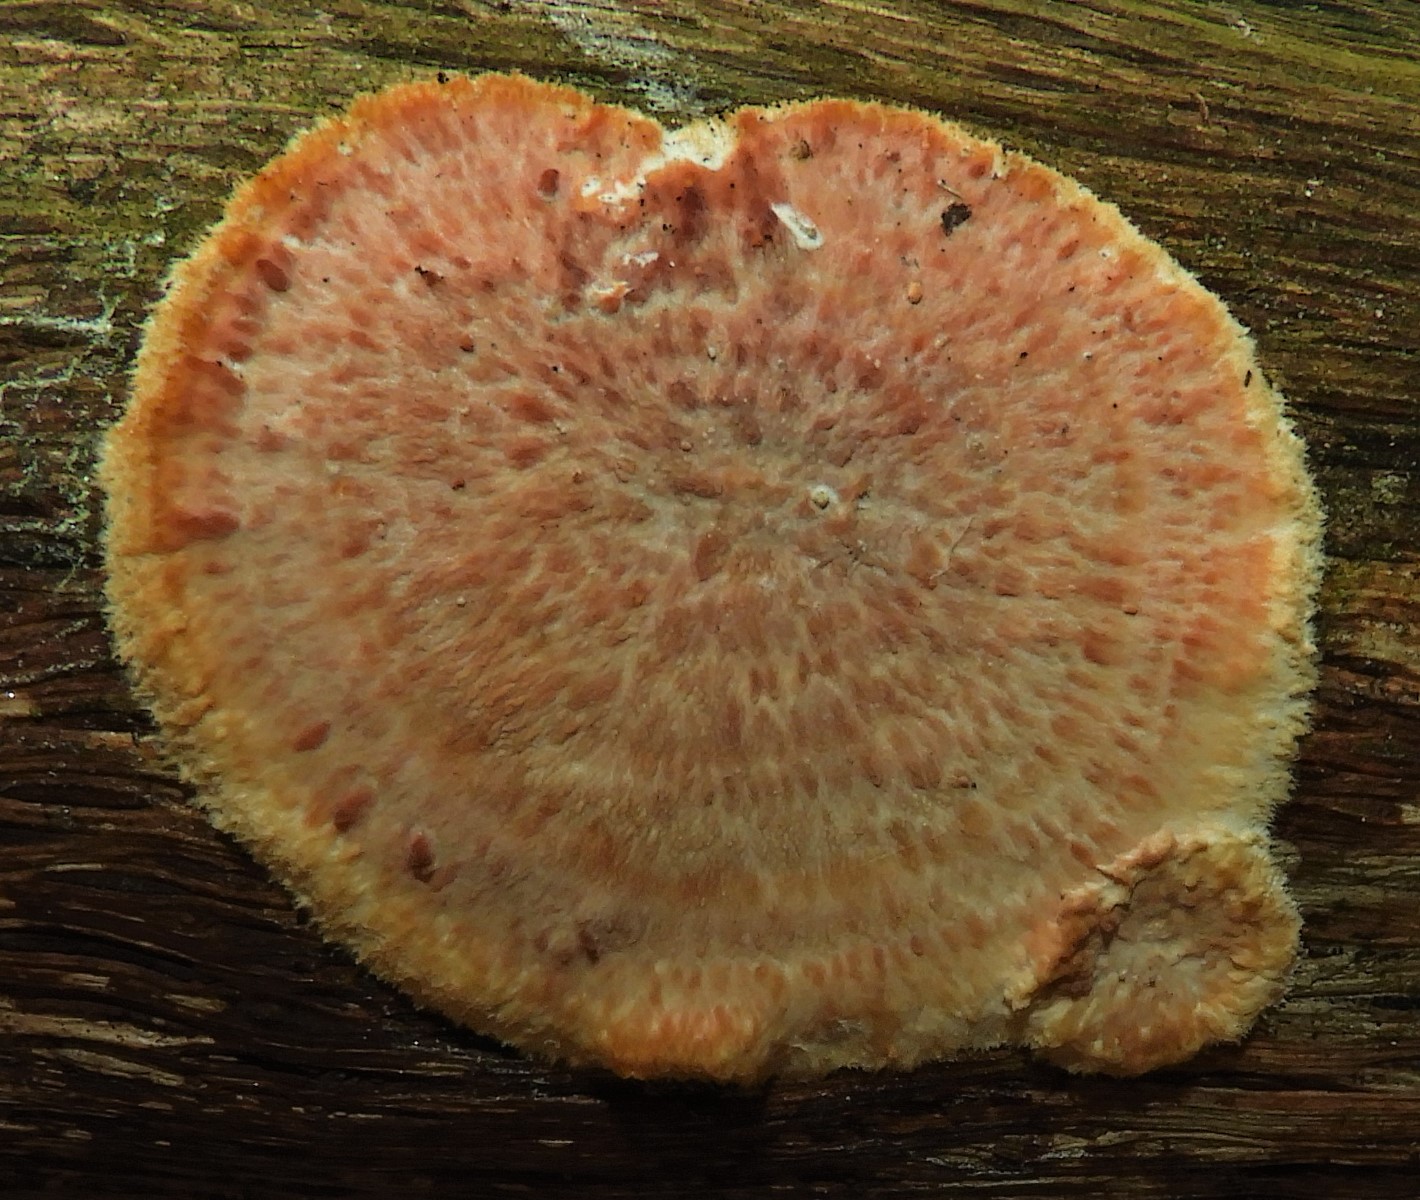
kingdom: Fungi
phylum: Basidiomycota
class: Agaricomycetes
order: Polyporales
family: Meruliaceae
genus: Phlebia
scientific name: Phlebia
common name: åresvamp
